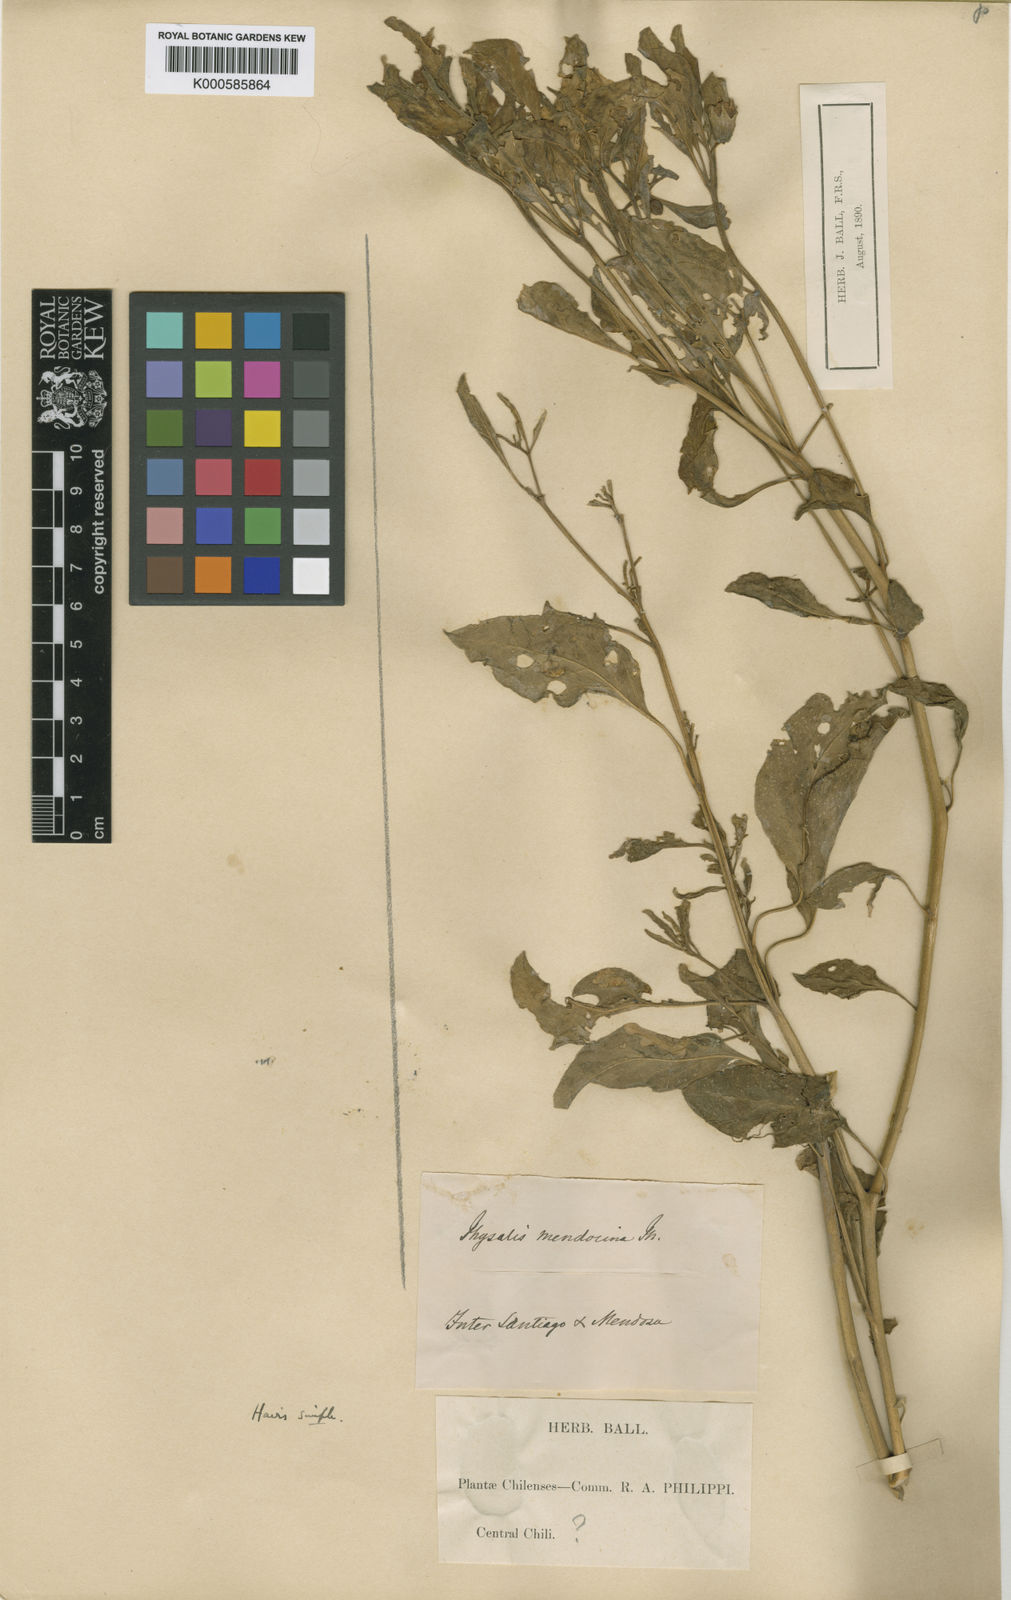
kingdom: Plantae
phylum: Tracheophyta
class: Magnoliopsida
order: Solanales
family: Solanaceae
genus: Physalis
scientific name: Physalis viscosa
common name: Stellate ground-cherry
